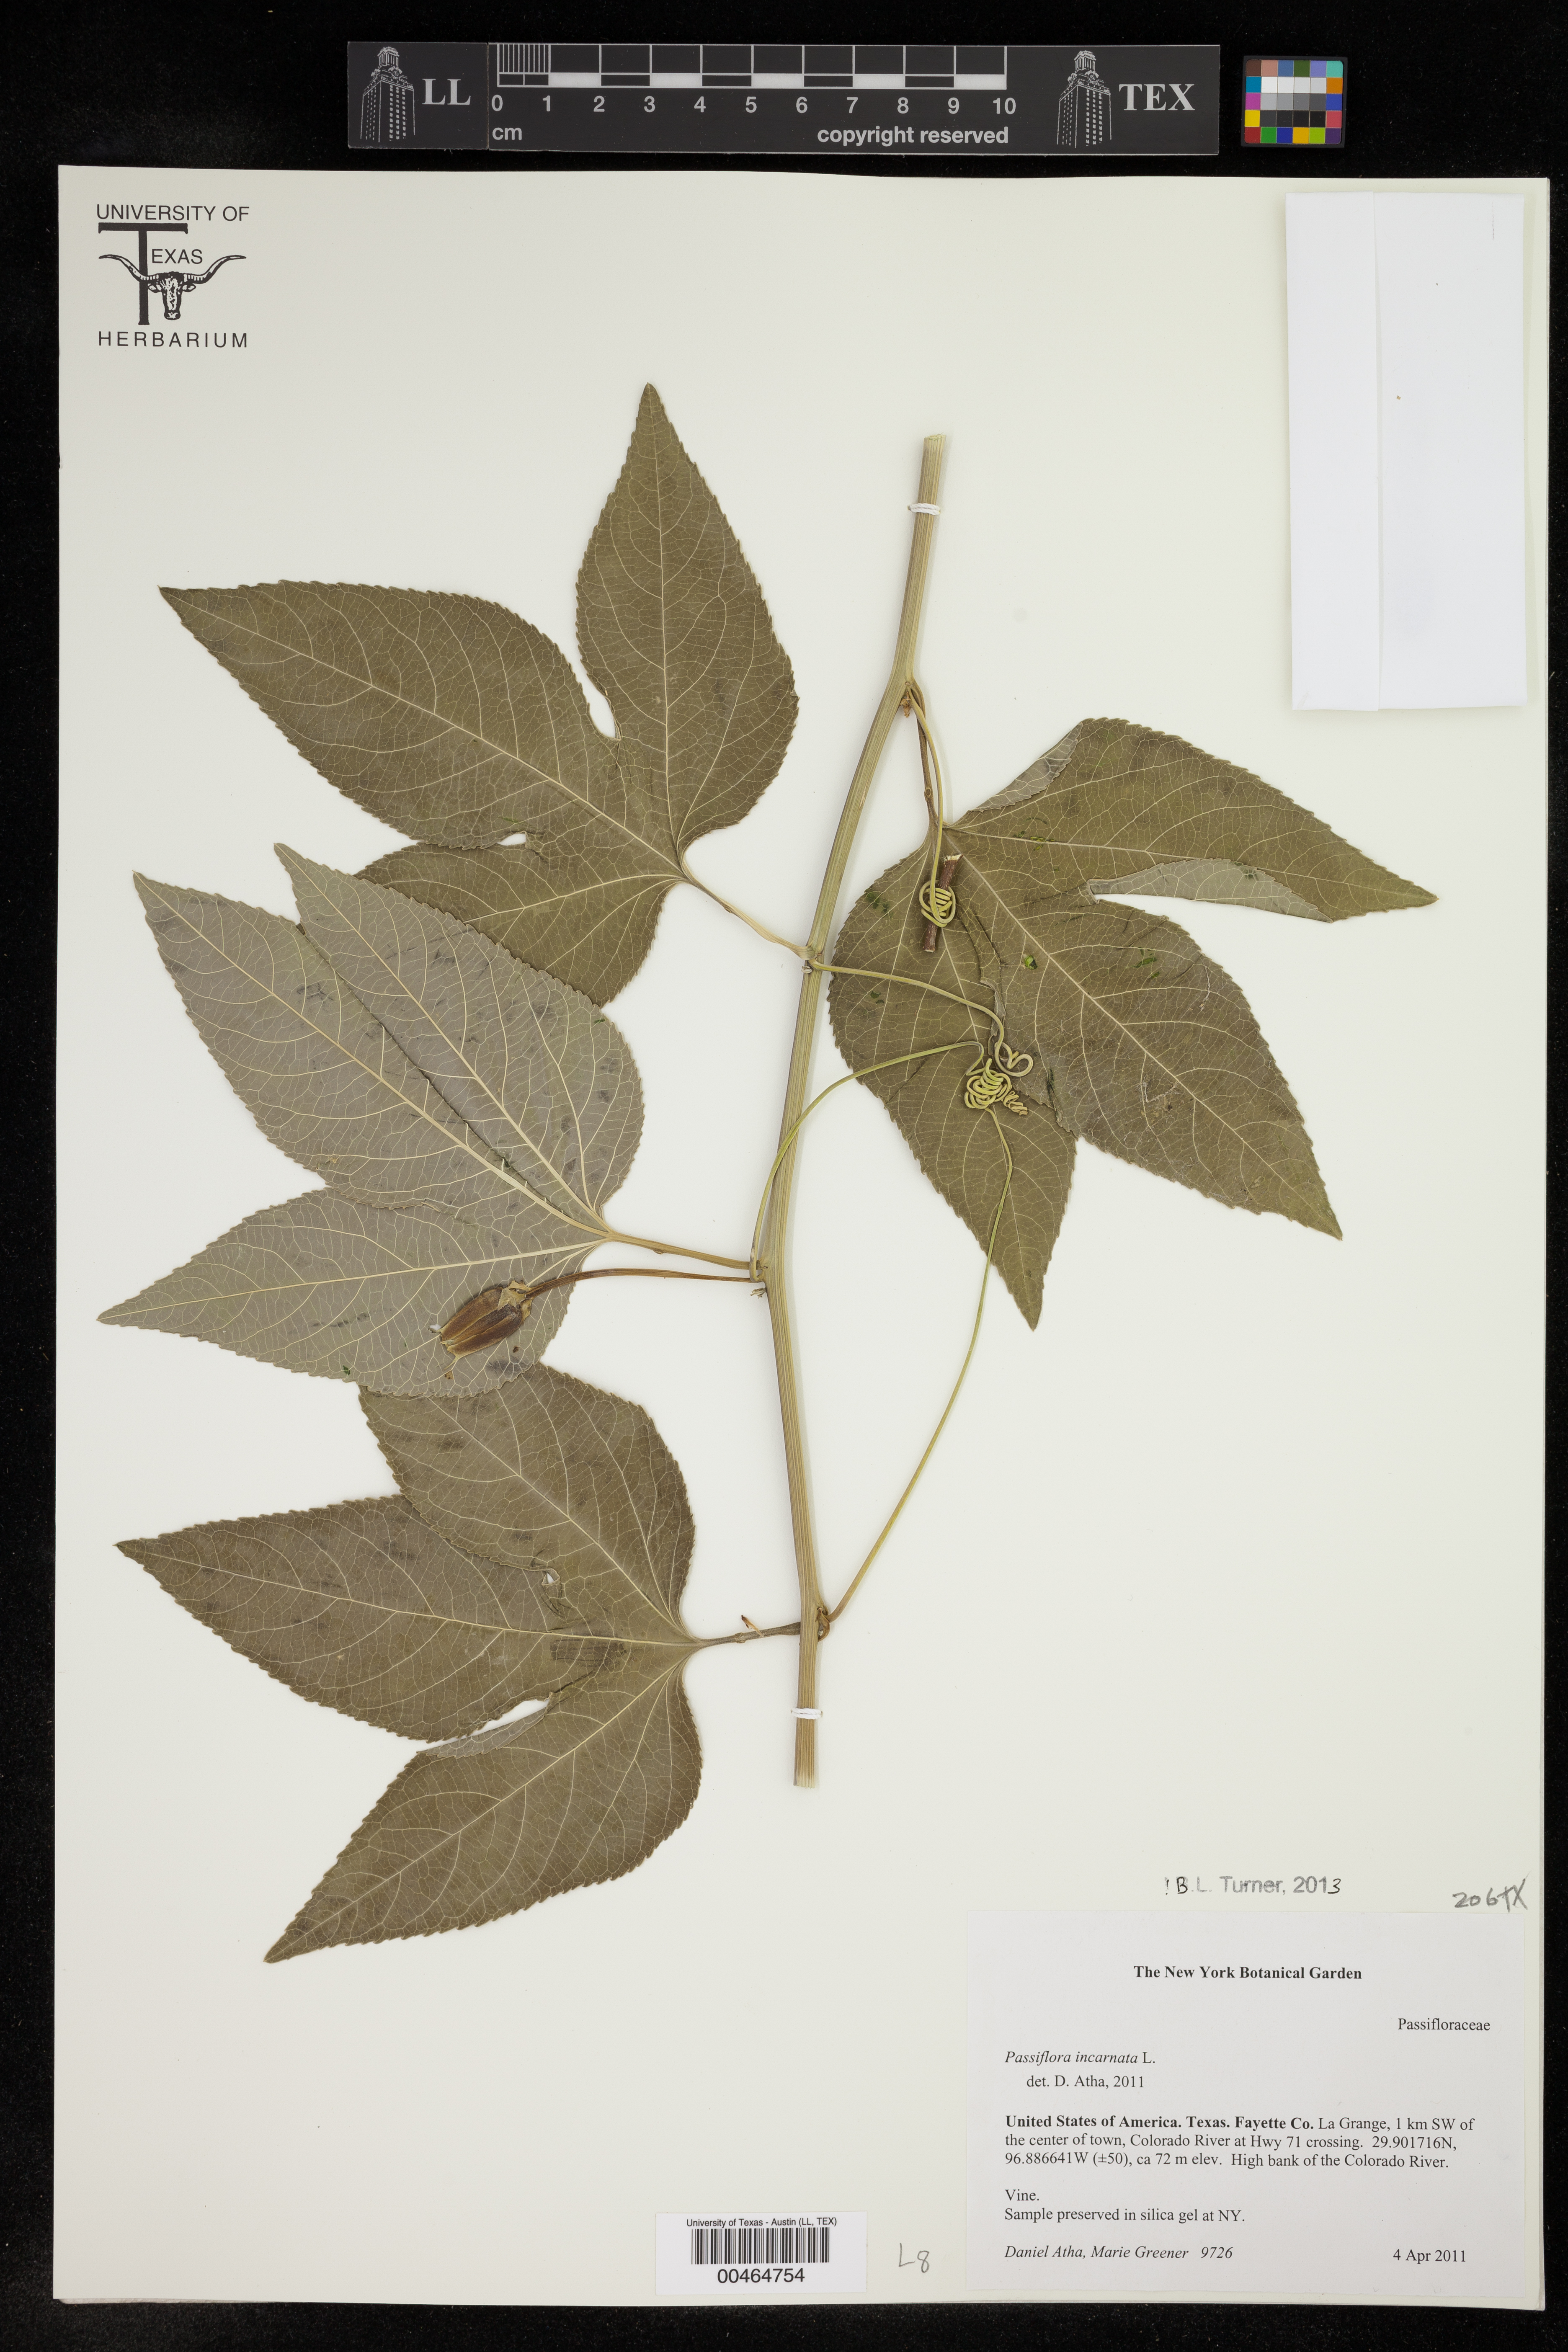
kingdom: Plantae
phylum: Tracheophyta
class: Magnoliopsida
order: Malpighiales
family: Passifloraceae
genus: Passiflora
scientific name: Passiflora incarnata
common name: Apricot-vine
